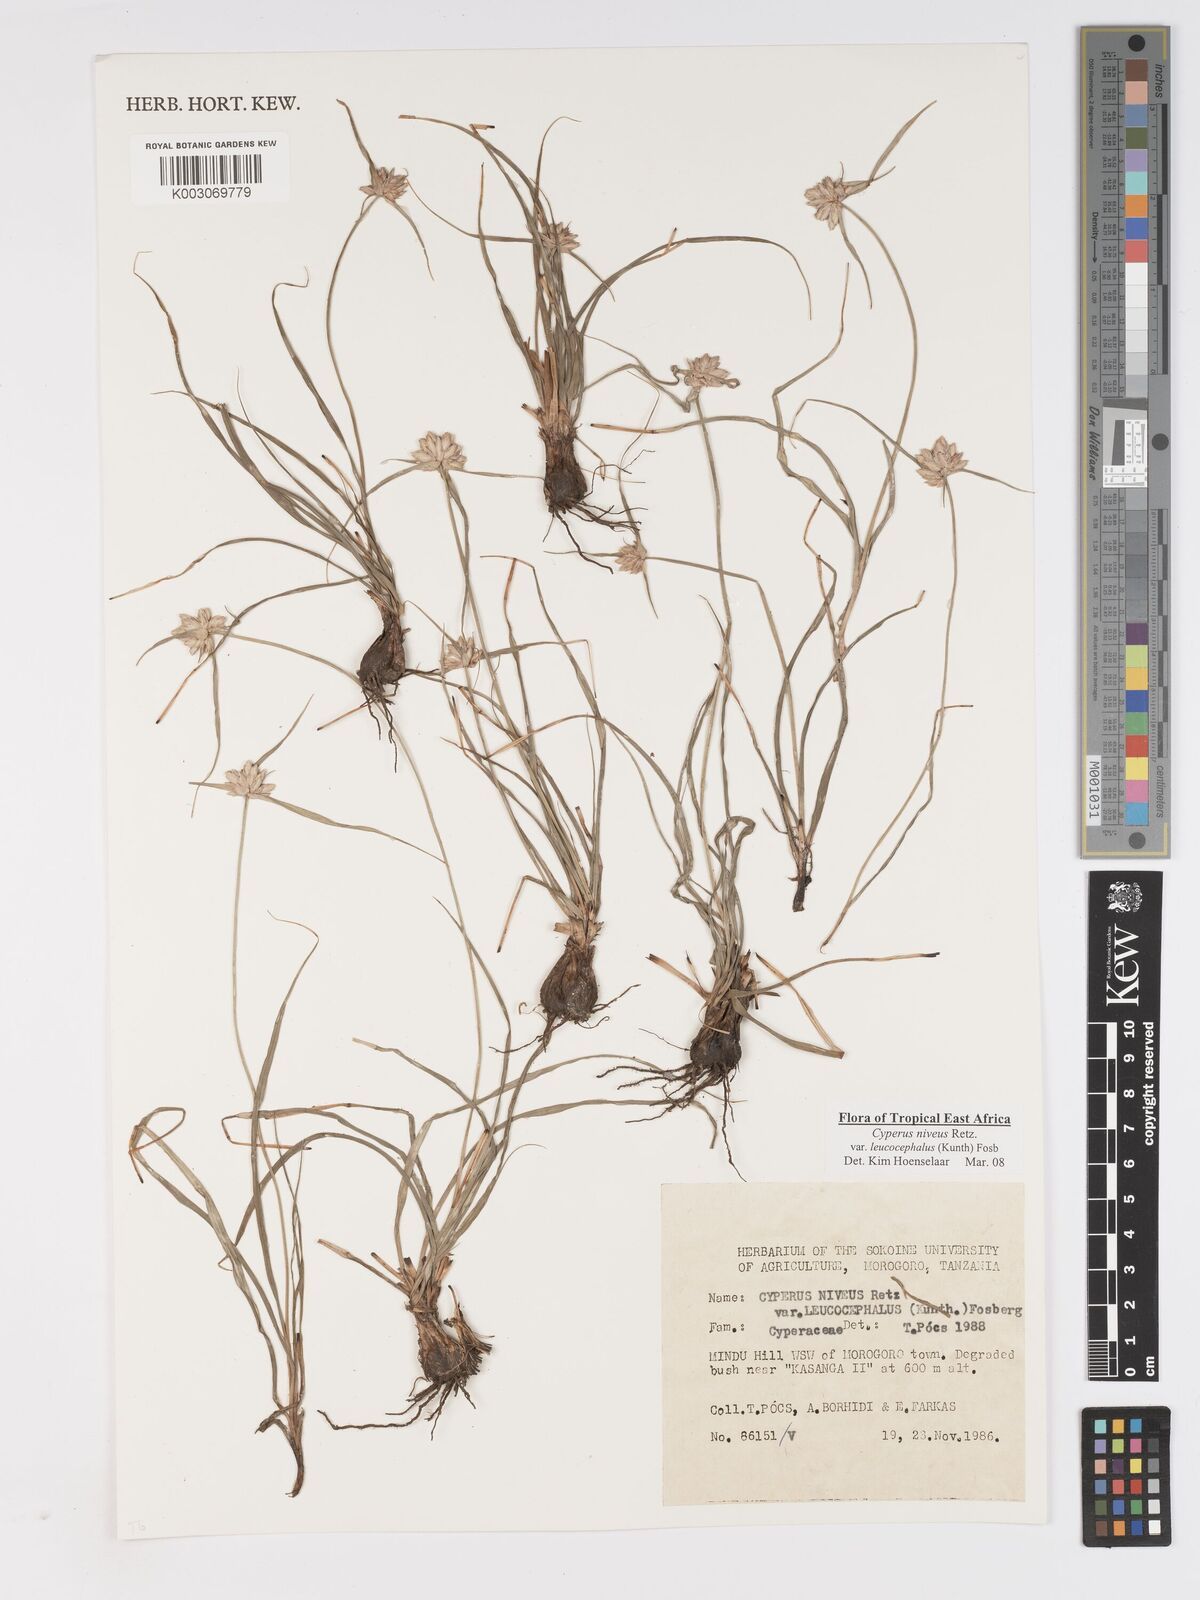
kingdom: Plantae
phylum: Tracheophyta
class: Liliopsida
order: Poales
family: Cyperaceae
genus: Cyperus
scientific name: Cyperus niveus
